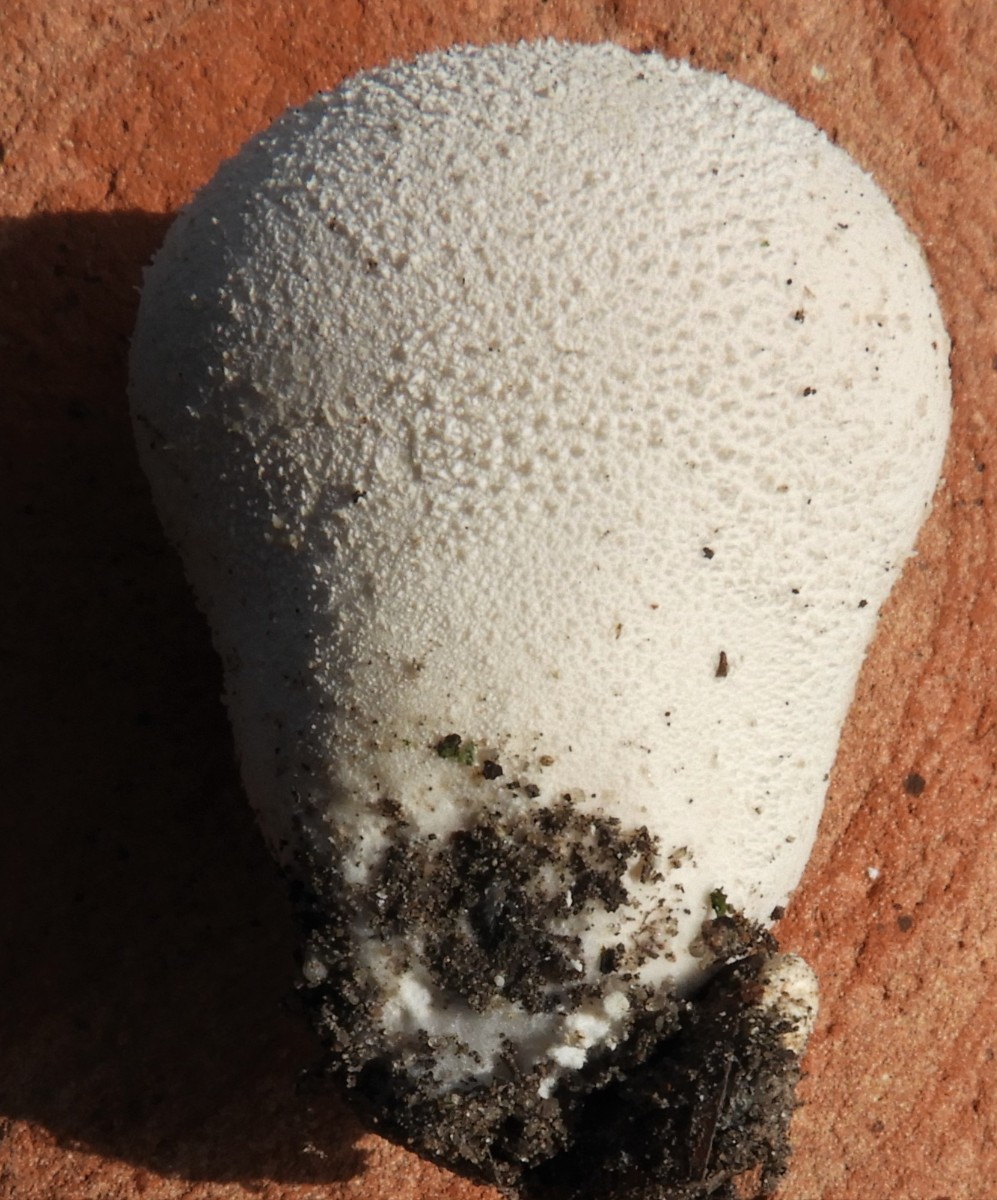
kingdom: Fungi
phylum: Basidiomycota
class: Agaricomycetes
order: Agaricales
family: Lycoperdaceae
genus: Lycoperdon
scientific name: Lycoperdon perlatum
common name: krystal-støvbold
